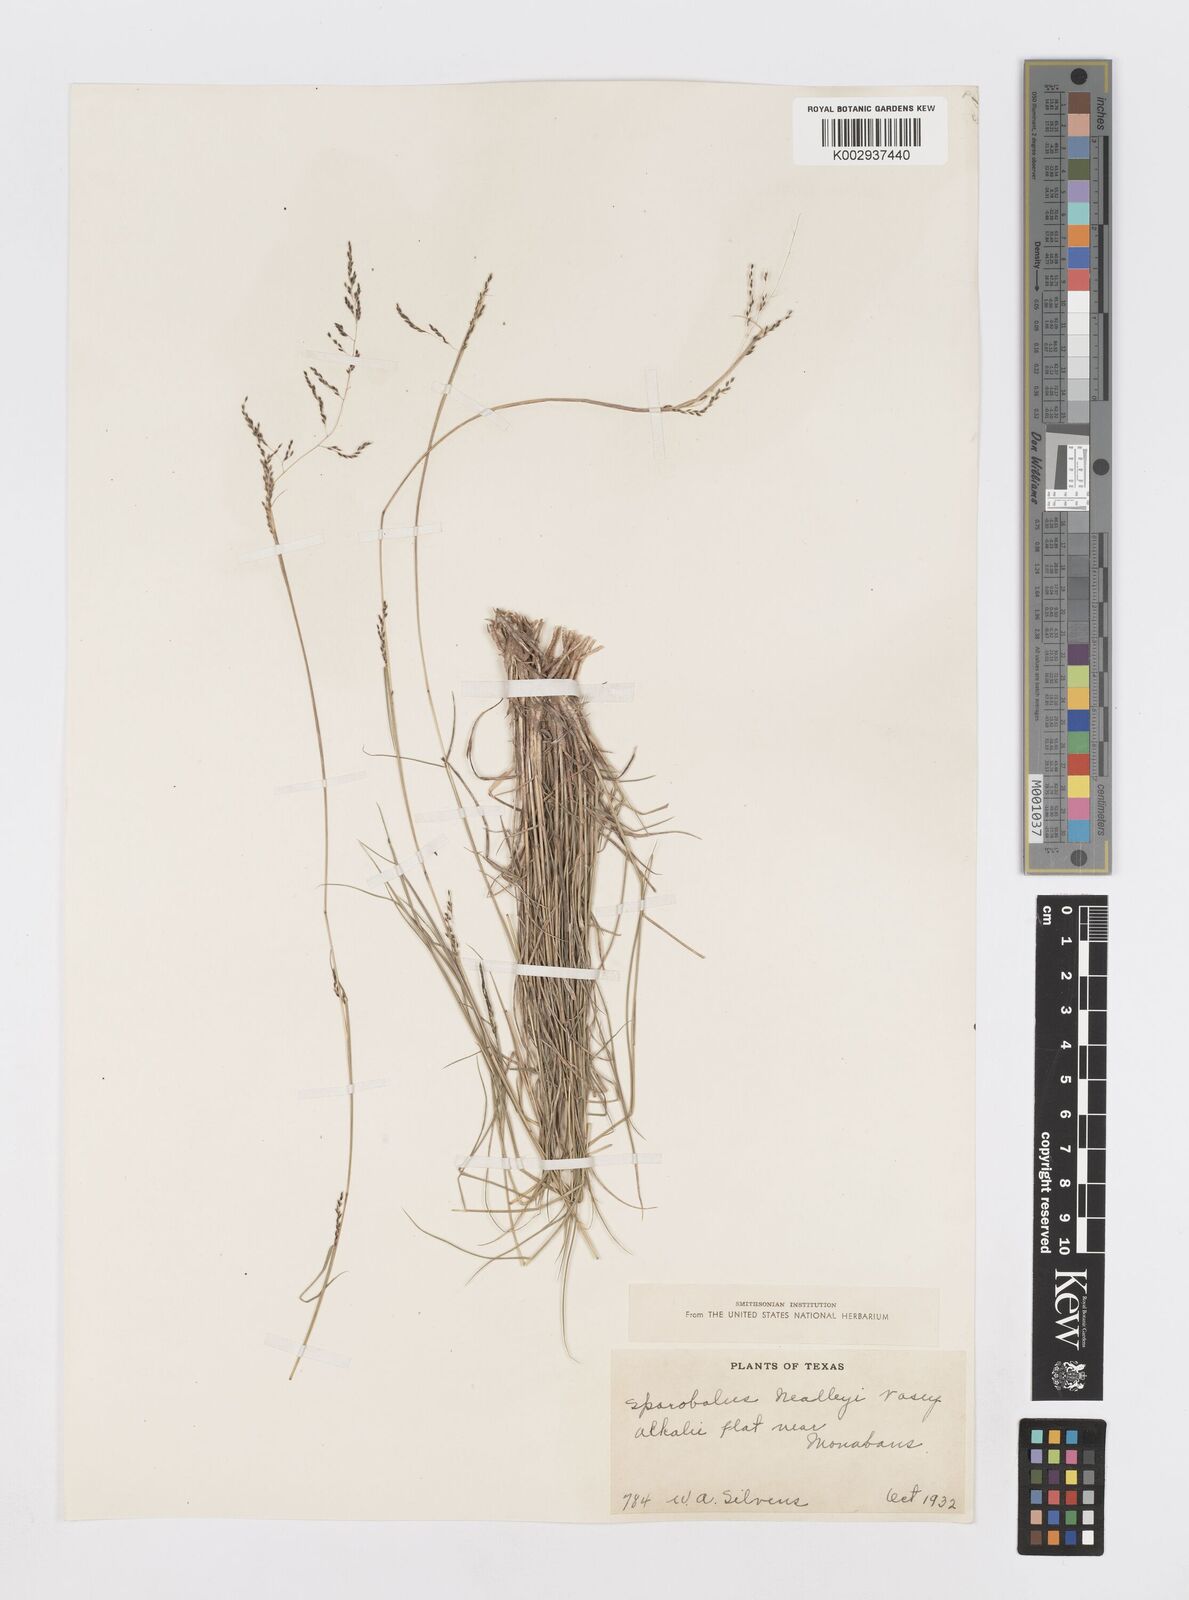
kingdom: Plantae
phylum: Tracheophyta
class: Liliopsida
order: Poales
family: Poaceae
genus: Sporobolus
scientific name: Sporobolus nealleyi
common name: Gyp grass
